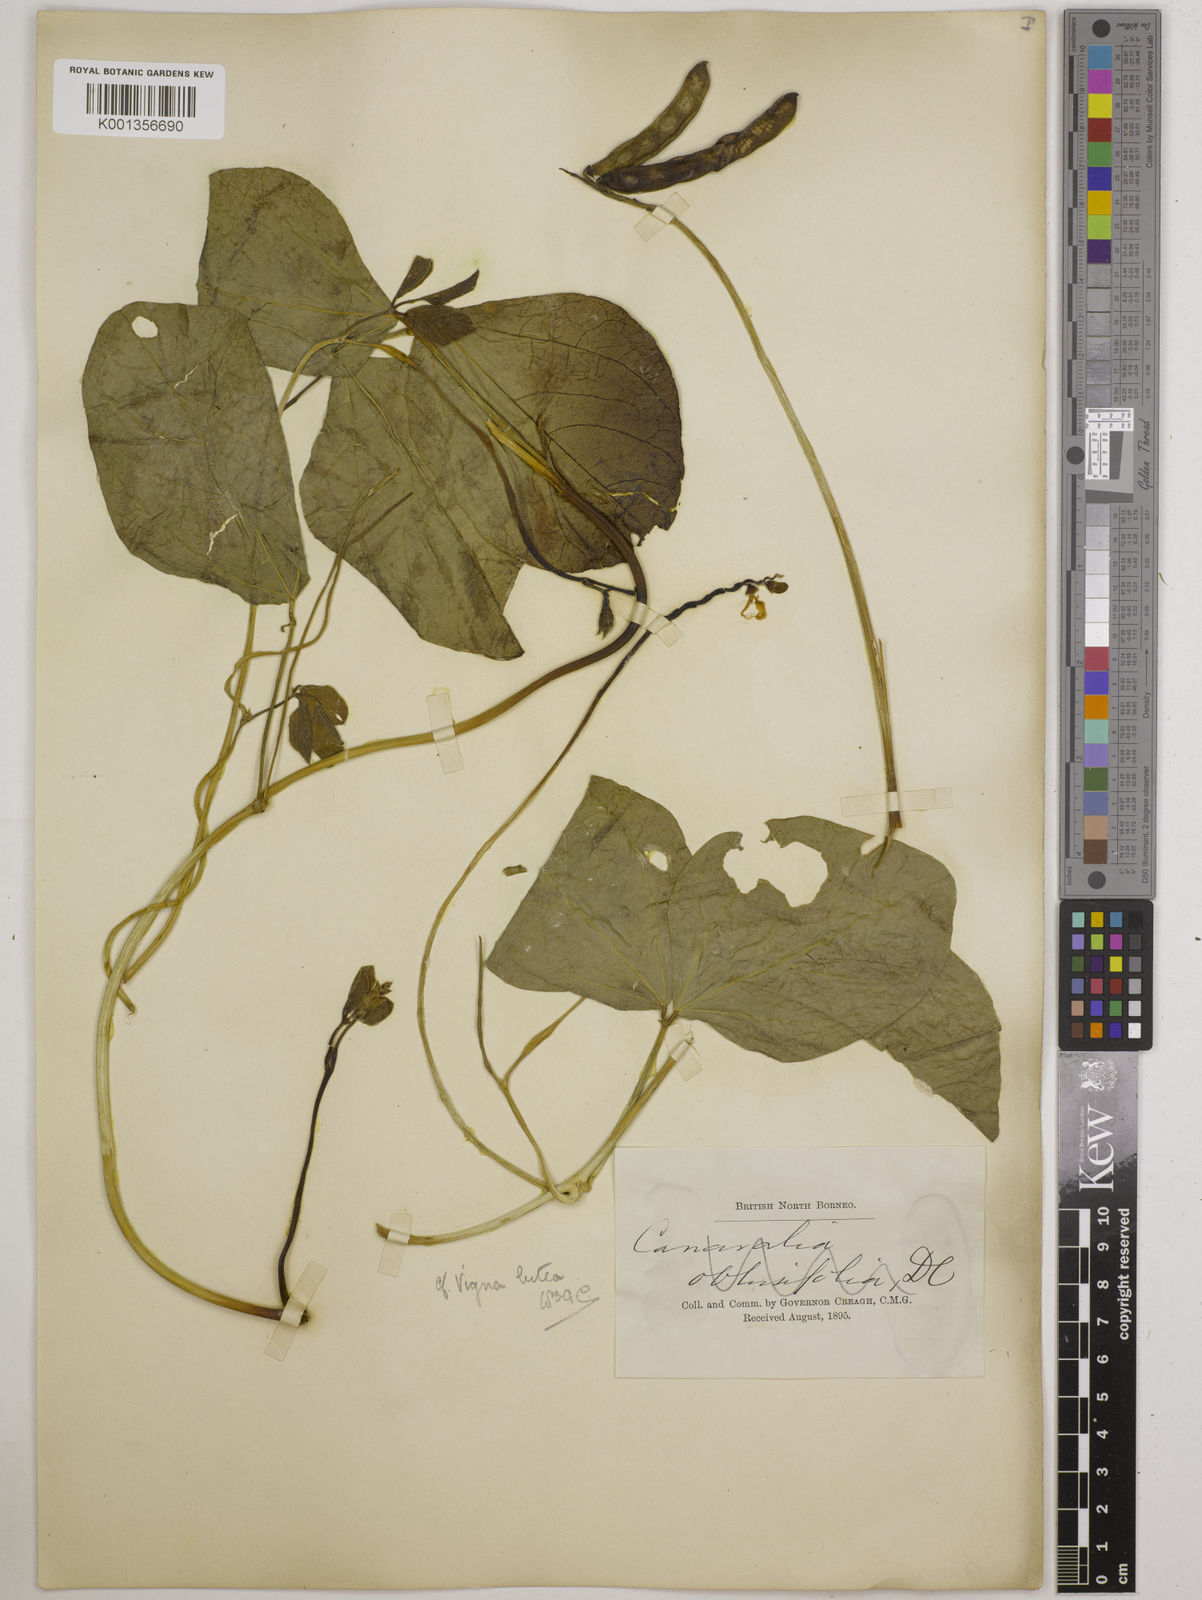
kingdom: Plantae
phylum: Tracheophyta
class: Magnoliopsida
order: Fabales
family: Fabaceae
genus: Vigna
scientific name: Vigna marina
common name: Dune-bean
